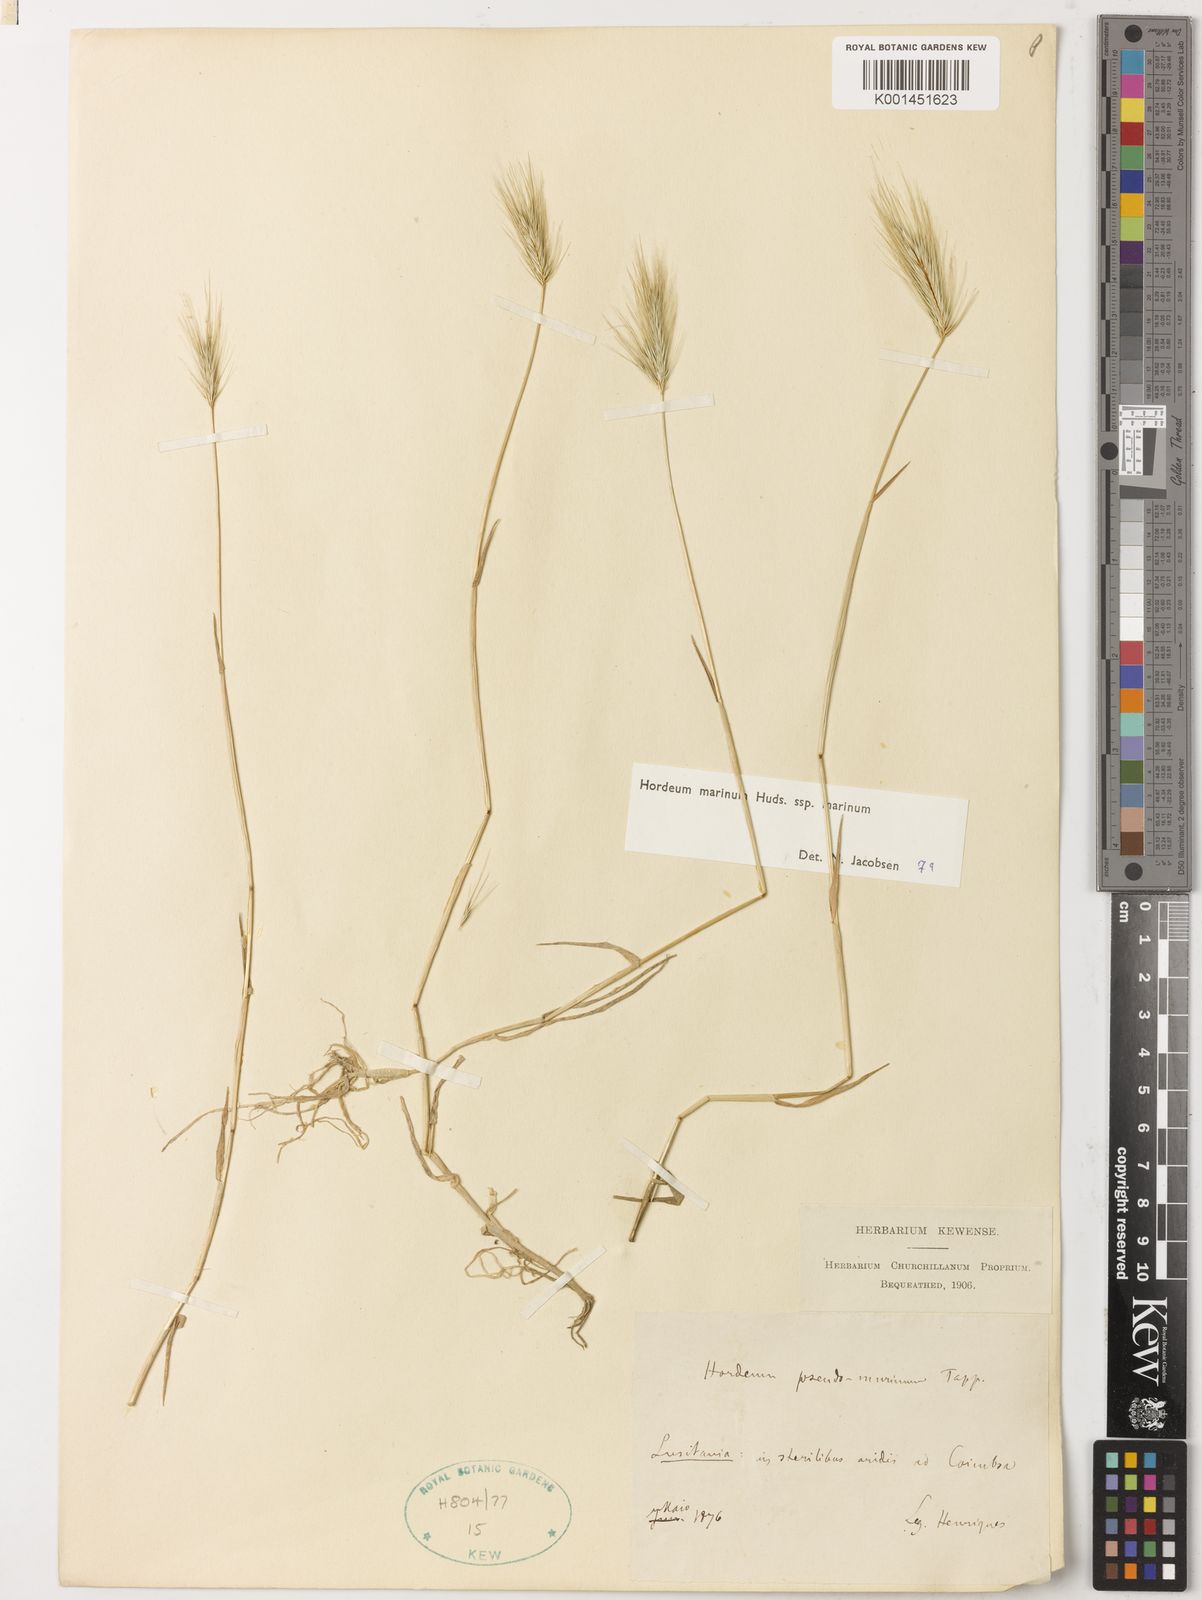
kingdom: Plantae
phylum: Tracheophyta
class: Liliopsida
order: Poales
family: Poaceae
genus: Hordeum
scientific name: Hordeum marinum
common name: Sea barley
